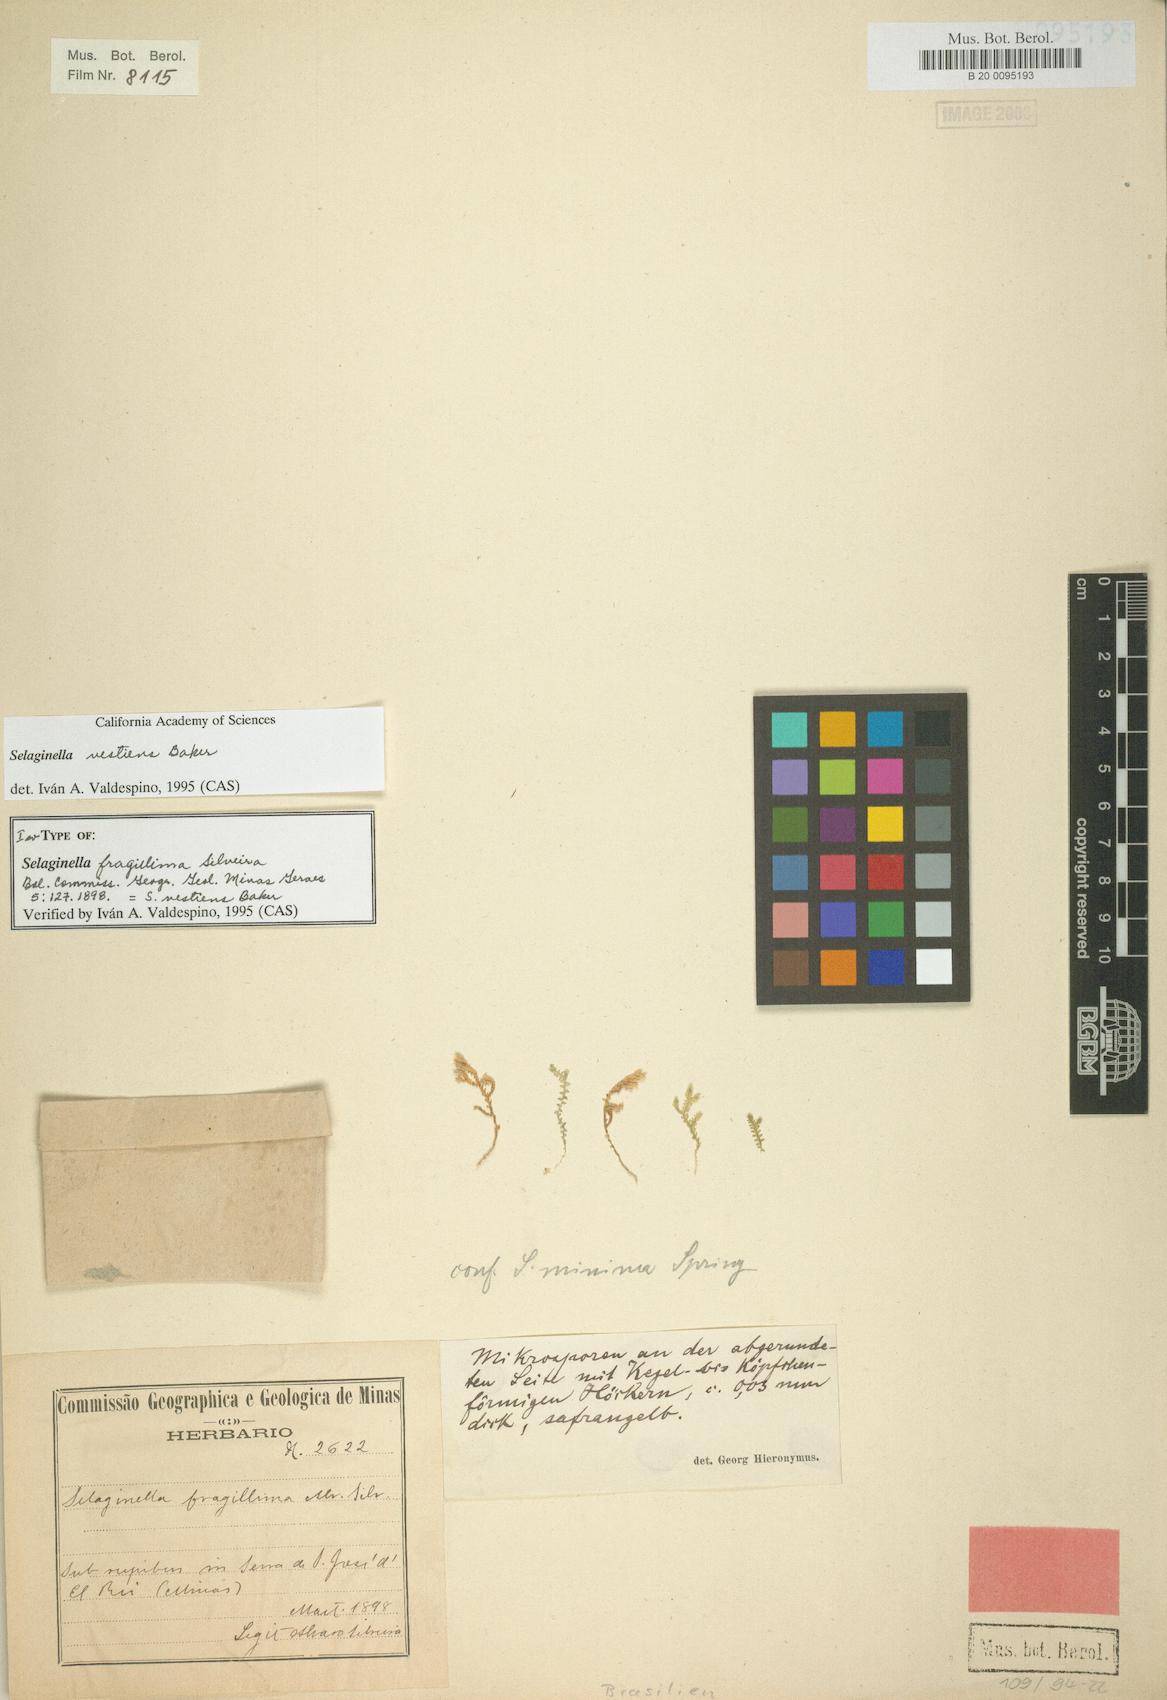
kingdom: Plantae
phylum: Tracheophyta
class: Lycopodiopsida
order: Selaginellales
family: Selaginellaceae
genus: Selaginella
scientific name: Selaginella vestiens
